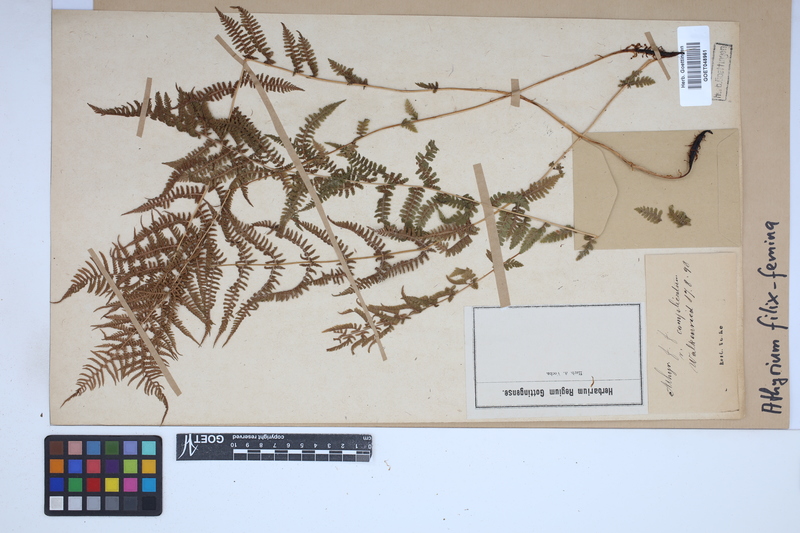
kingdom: Plantae
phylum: Tracheophyta
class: Polypodiopsida
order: Polypodiales
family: Athyriaceae
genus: Athyrium
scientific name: Athyrium filix-femina
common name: Lady fern
